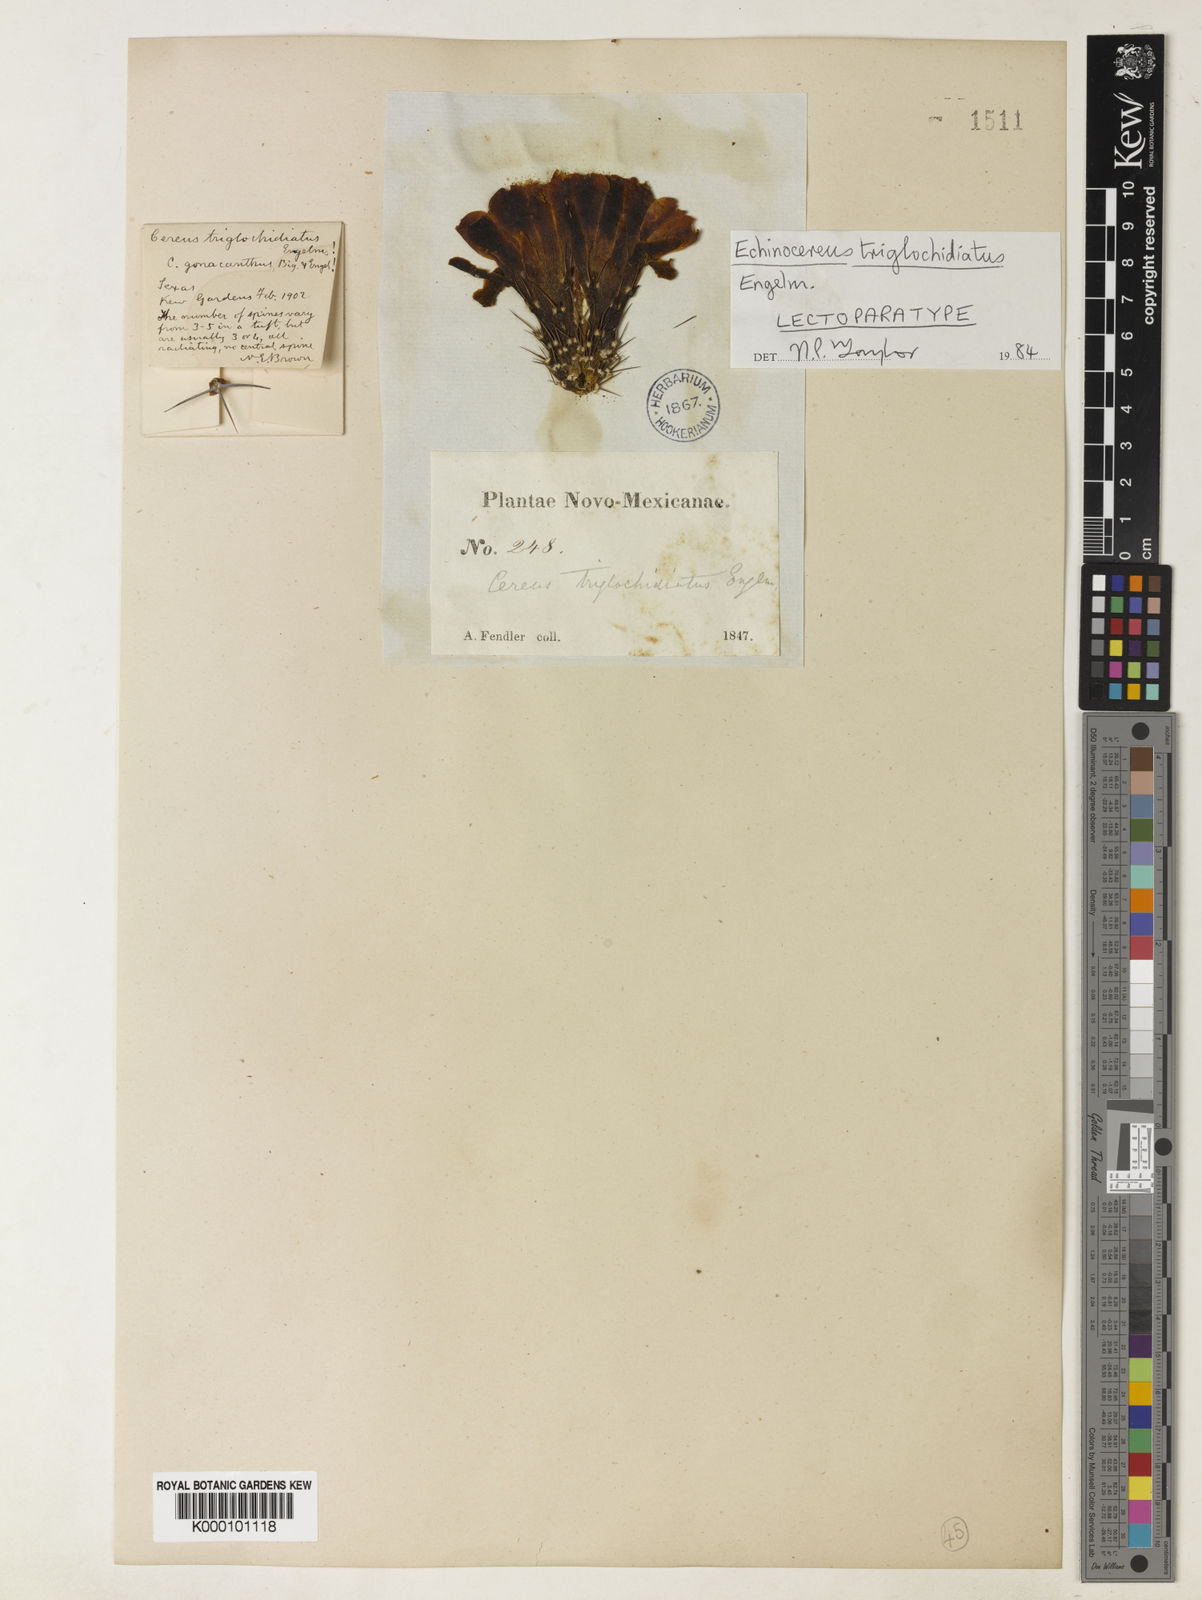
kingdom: Plantae
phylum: Tracheophyta
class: Magnoliopsida
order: Caryophyllales
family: Cactaceae
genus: Echinocereus
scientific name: Echinocereus triglochidiatus
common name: Claretcup hedgehog
